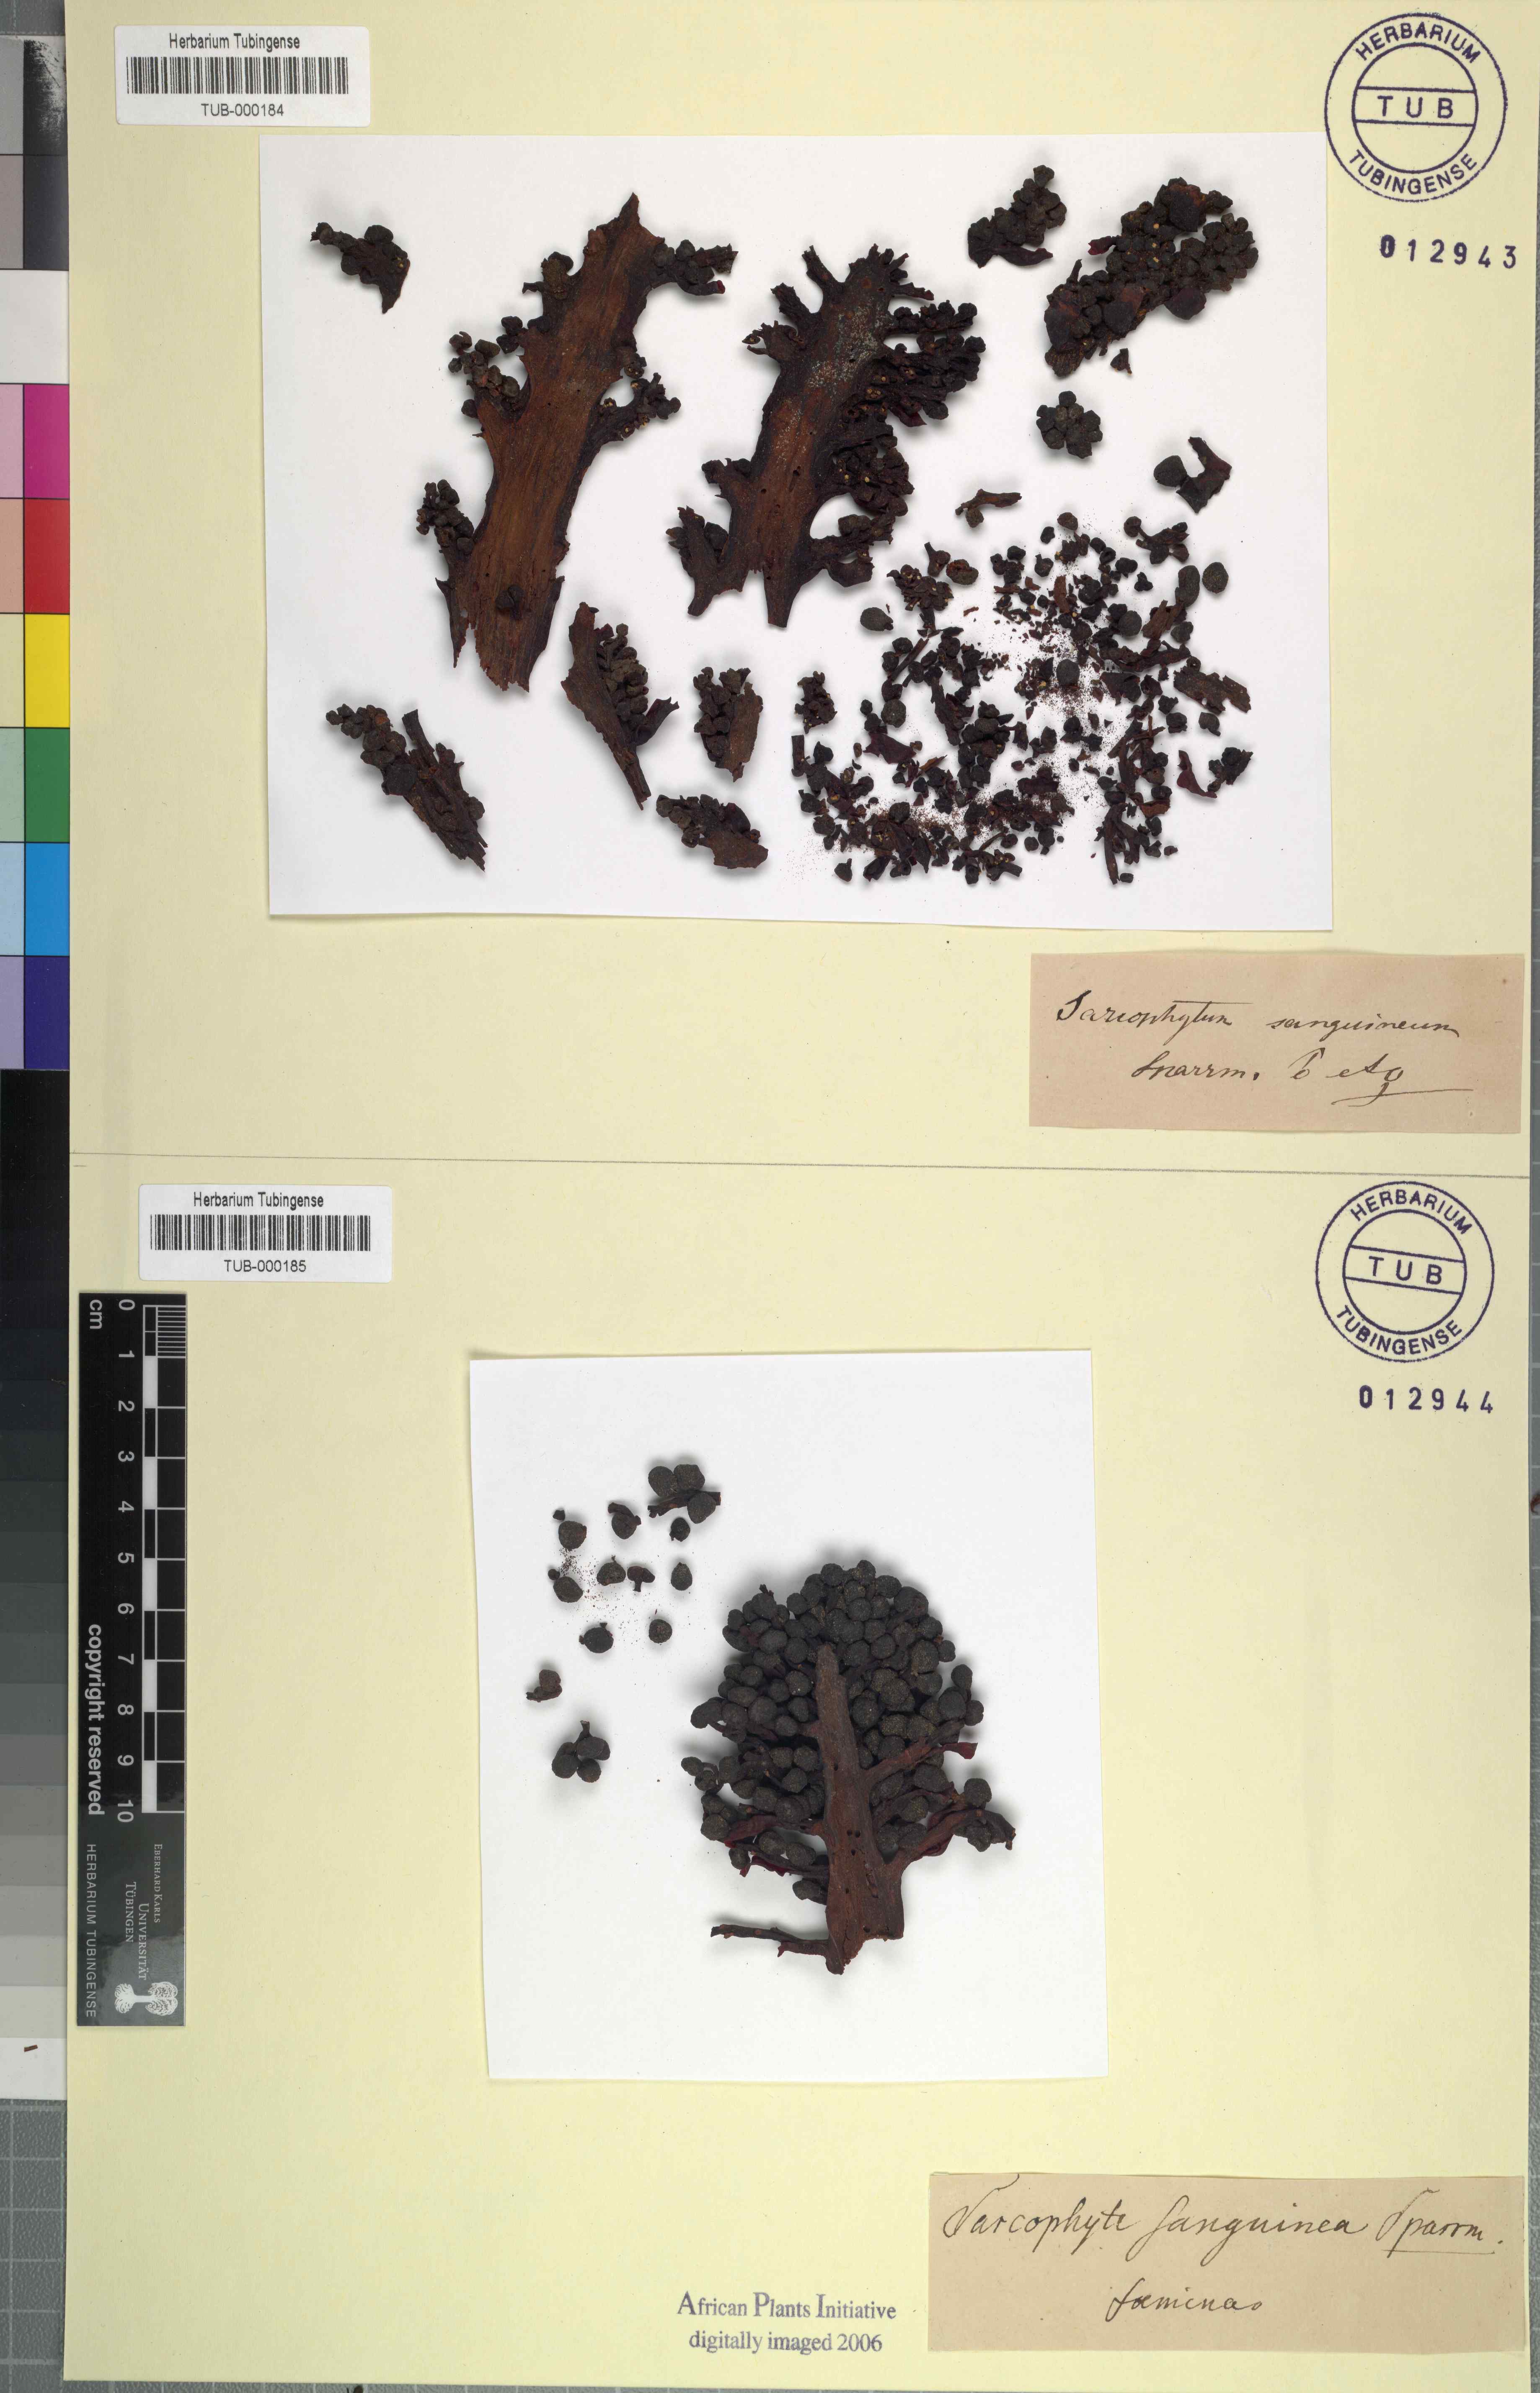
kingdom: Plantae
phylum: Tracheophyta
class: Magnoliopsida
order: Santalales
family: Balanophoraceae
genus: Sarcophyte
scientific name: Sarcophyte sanguinea
